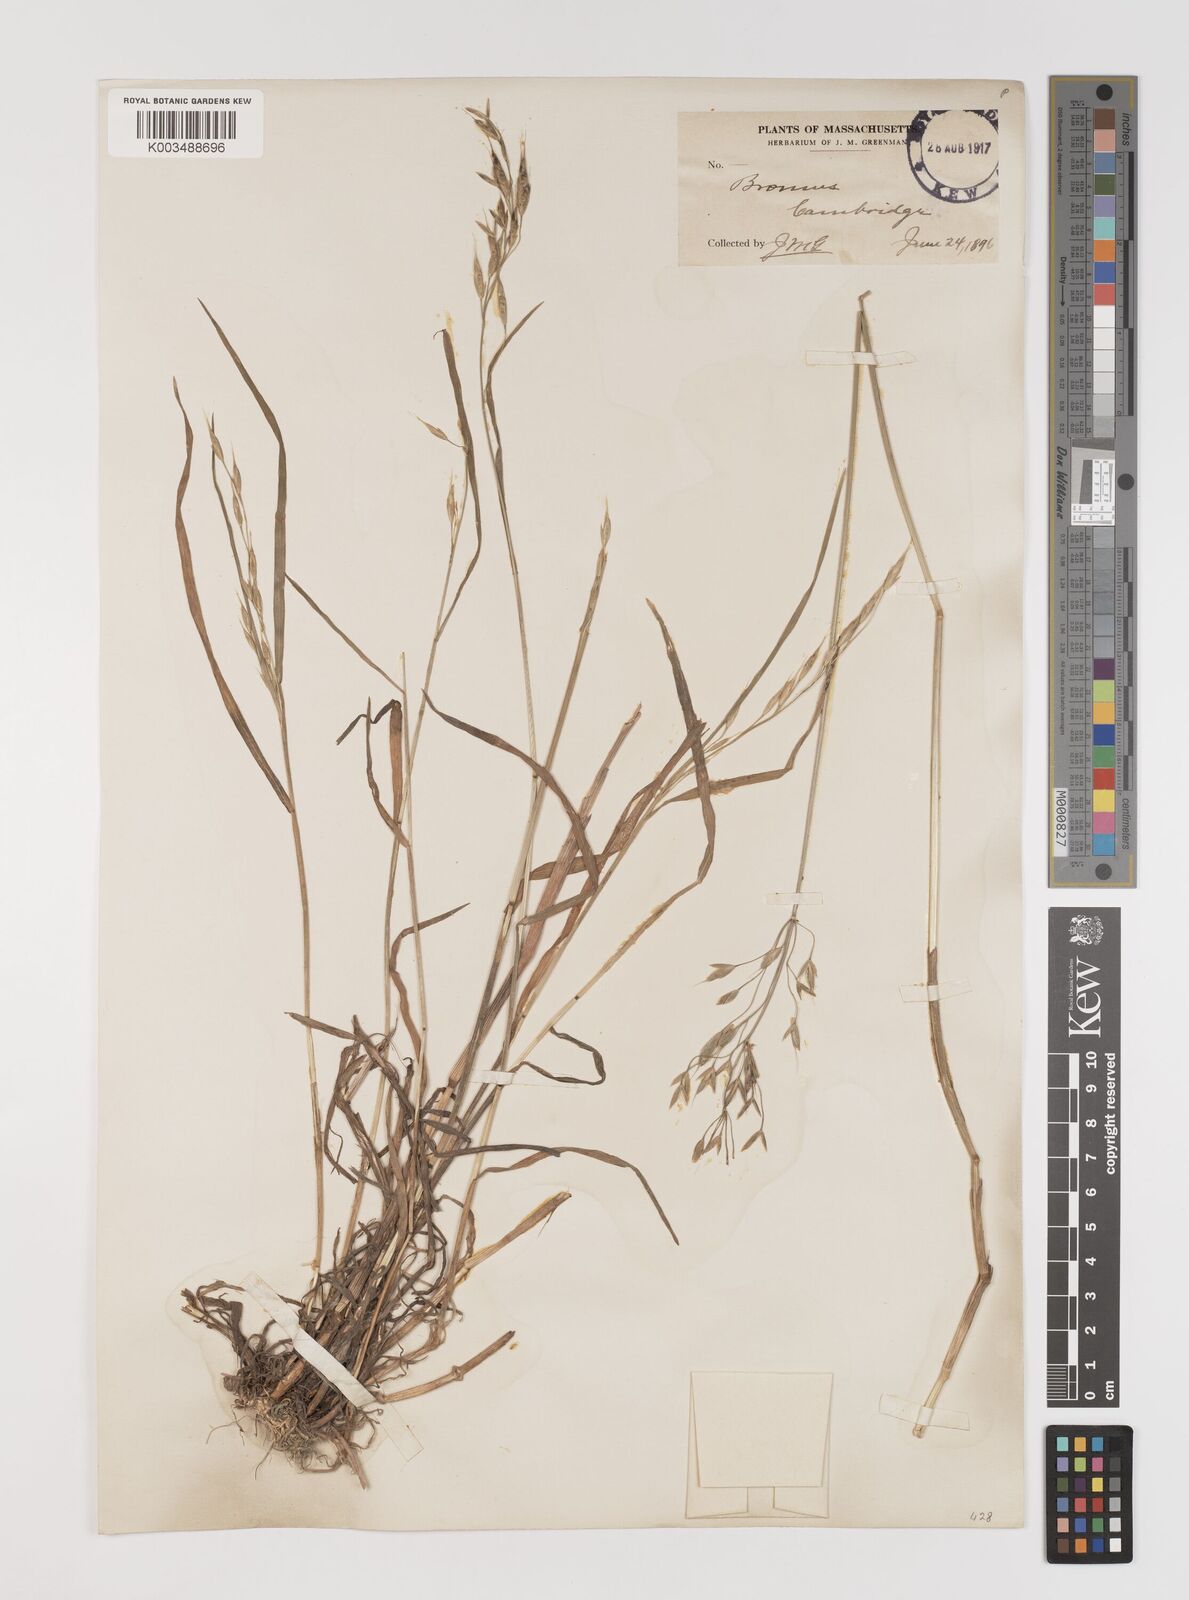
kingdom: Plantae
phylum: Tracheophyta
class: Liliopsida
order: Poales
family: Poaceae
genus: Bromus
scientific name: Bromus racemosus
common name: Bald brome
